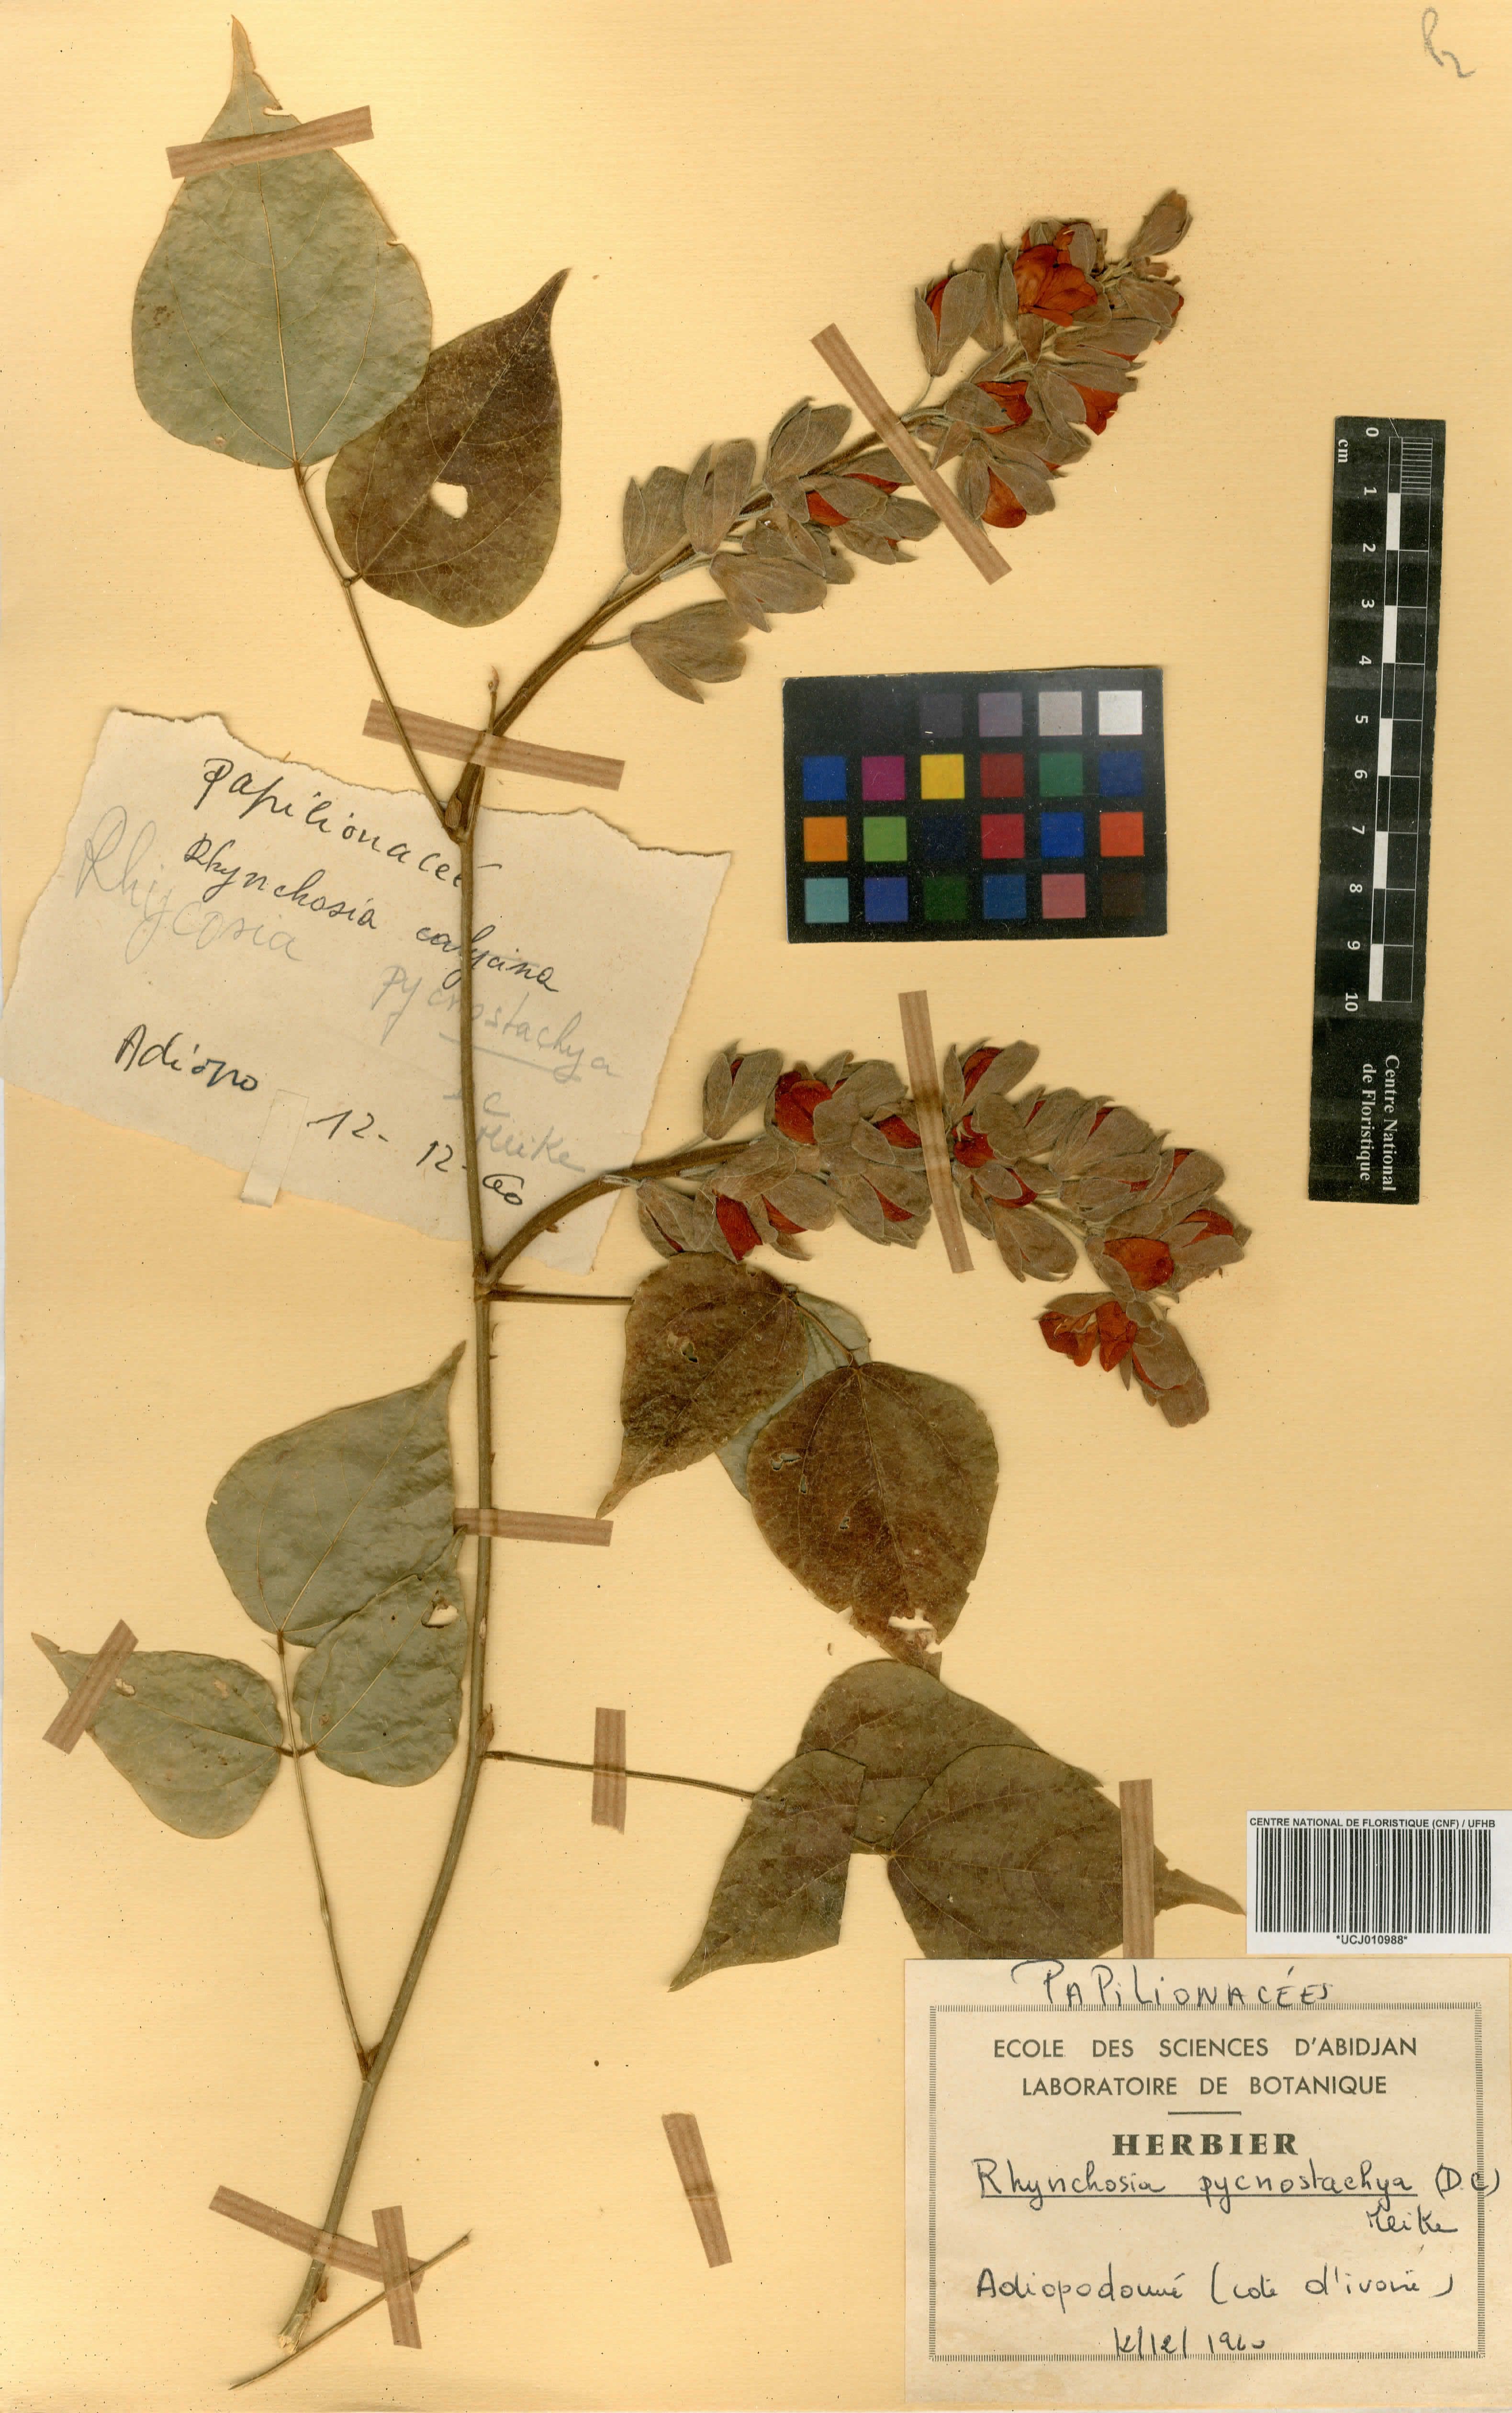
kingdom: Plantae
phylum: Tracheophyta
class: Magnoliopsida
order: Fabales
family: Fabaceae
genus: Rhynchosia
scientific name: Rhynchosia pycnostachya
